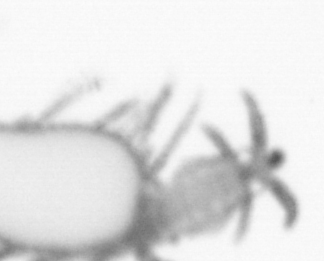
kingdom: Animalia
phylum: Annelida
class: Polychaeta
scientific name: Polychaeta
